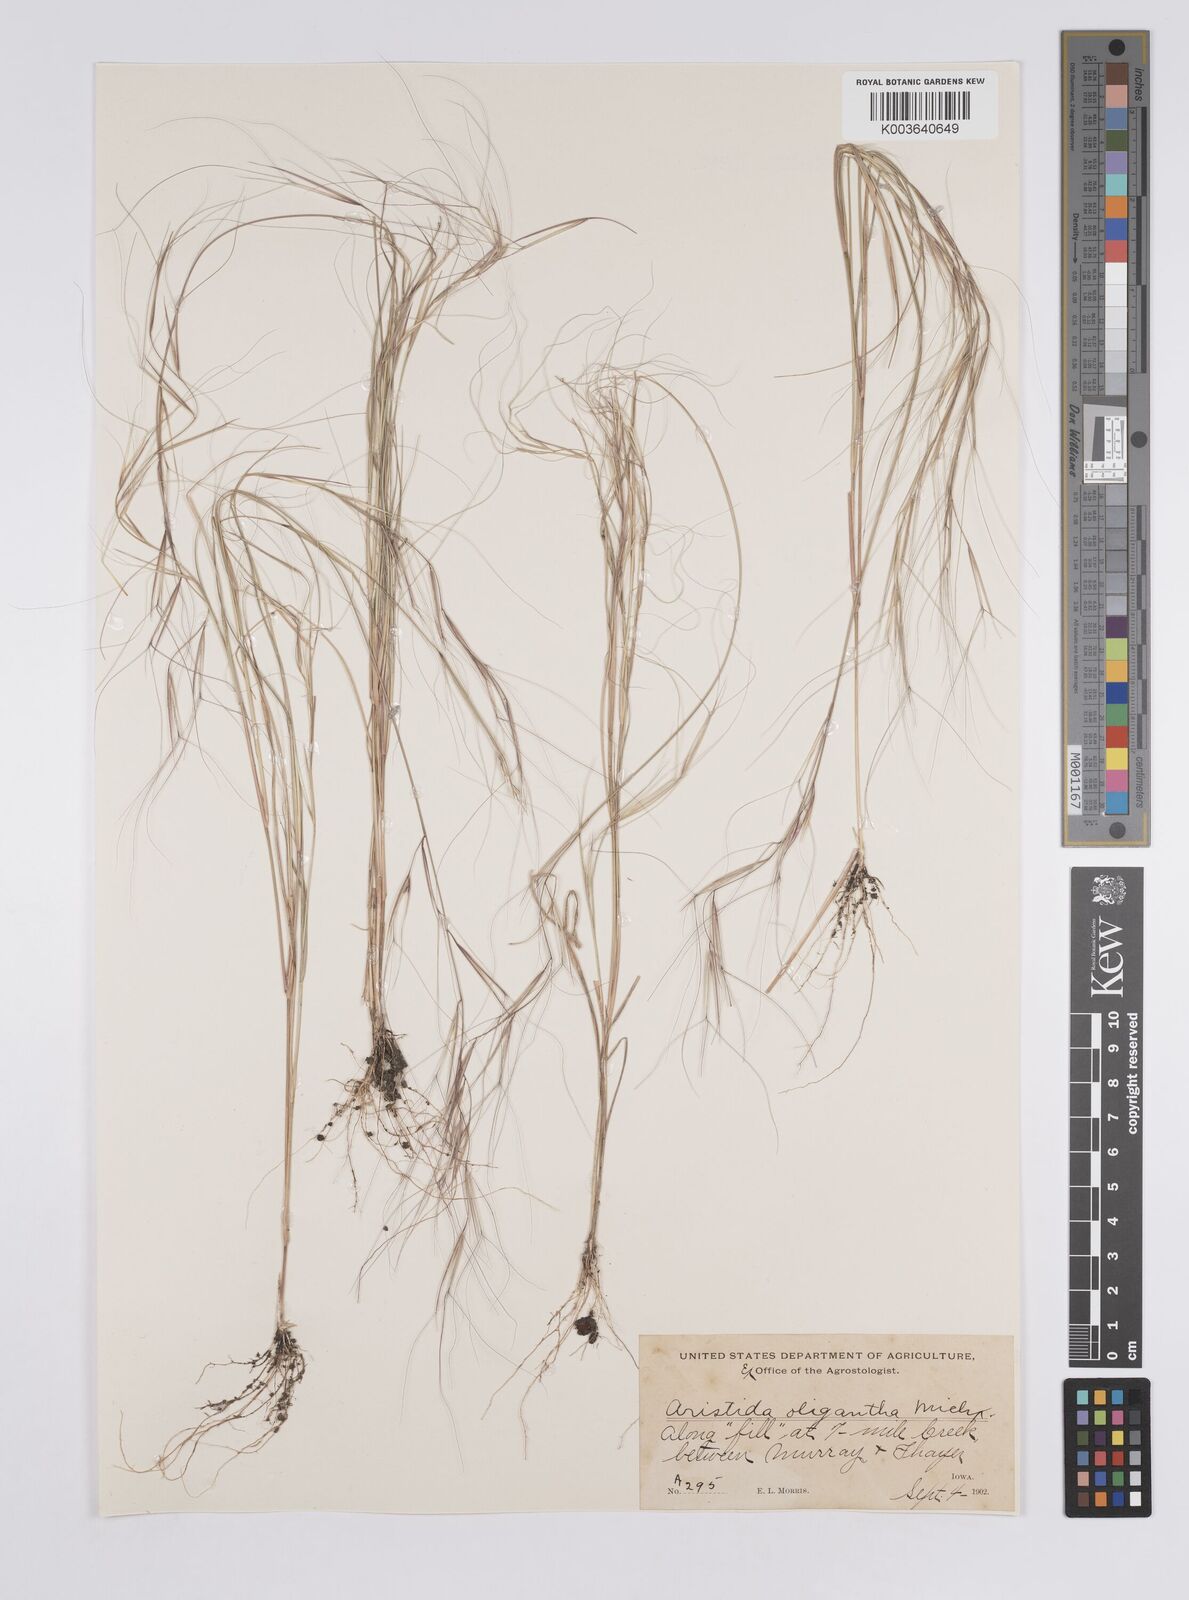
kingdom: Plantae
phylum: Tracheophyta
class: Liliopsida
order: Poales
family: Poaceae
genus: Aristida
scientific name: Aristida oligantha
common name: Few-flowered aristida
